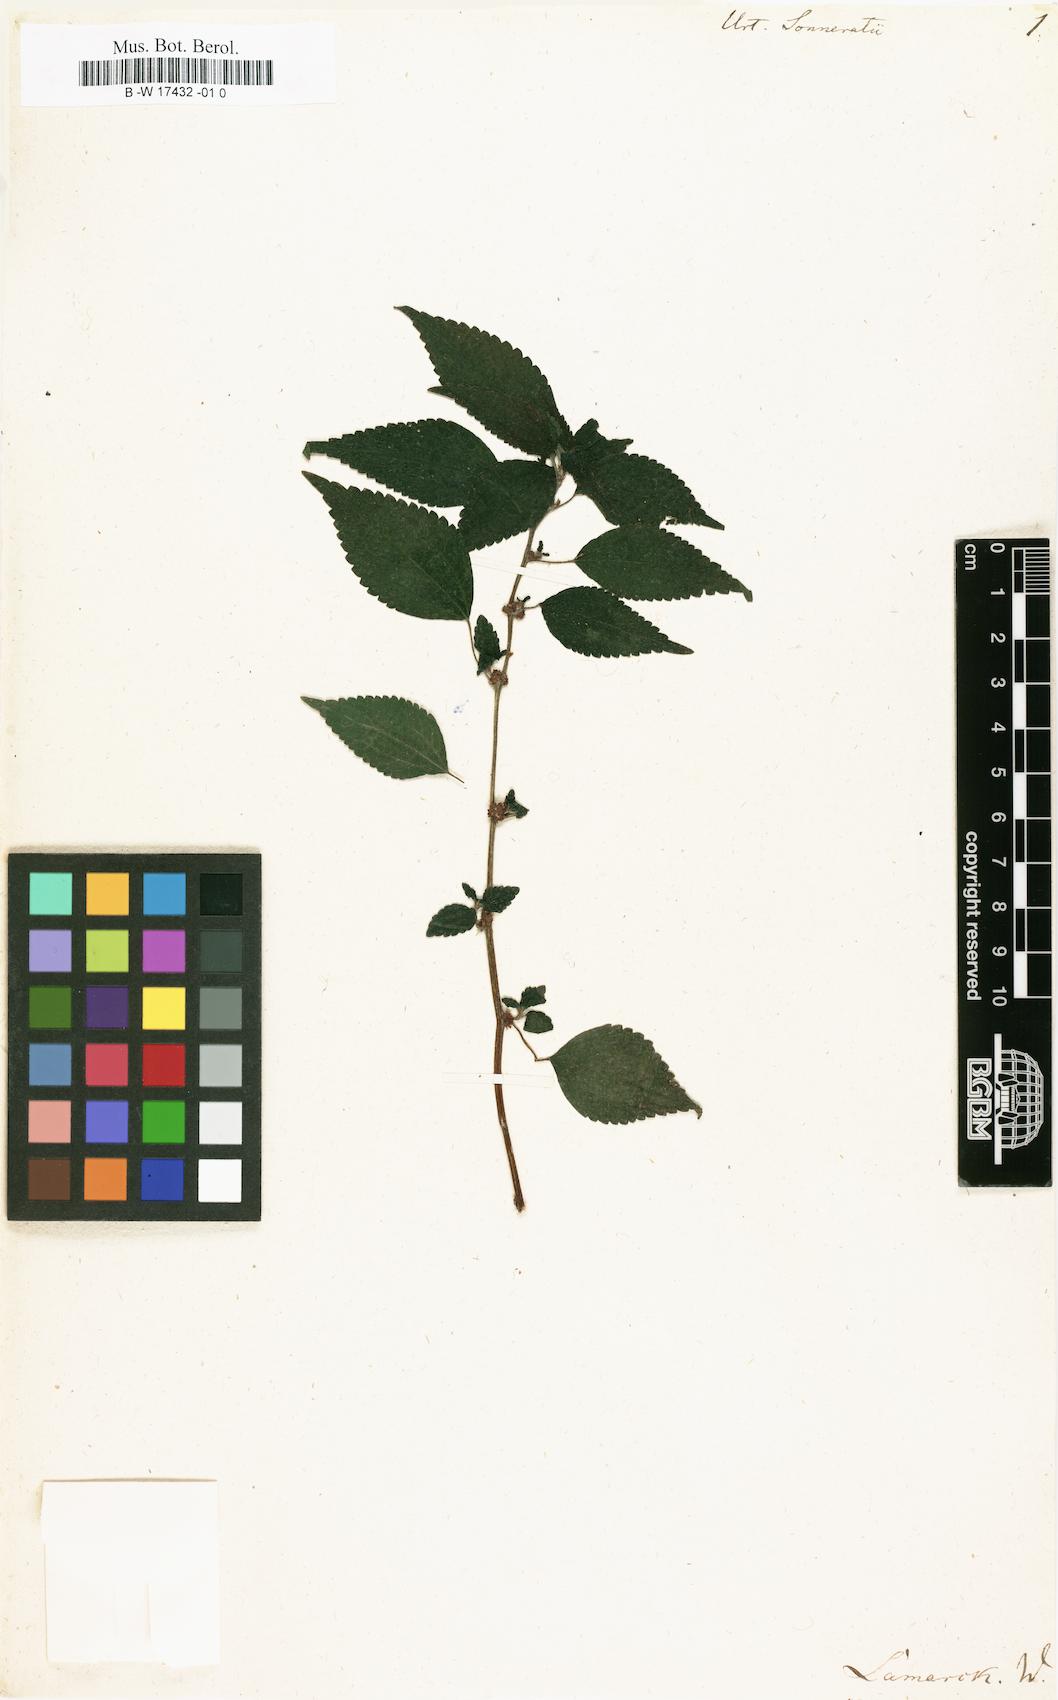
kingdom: Plantae
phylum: Tracheophyta
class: Magnoliopsida
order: Rosales
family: Urticaceae
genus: Urtica
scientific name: Urtica
